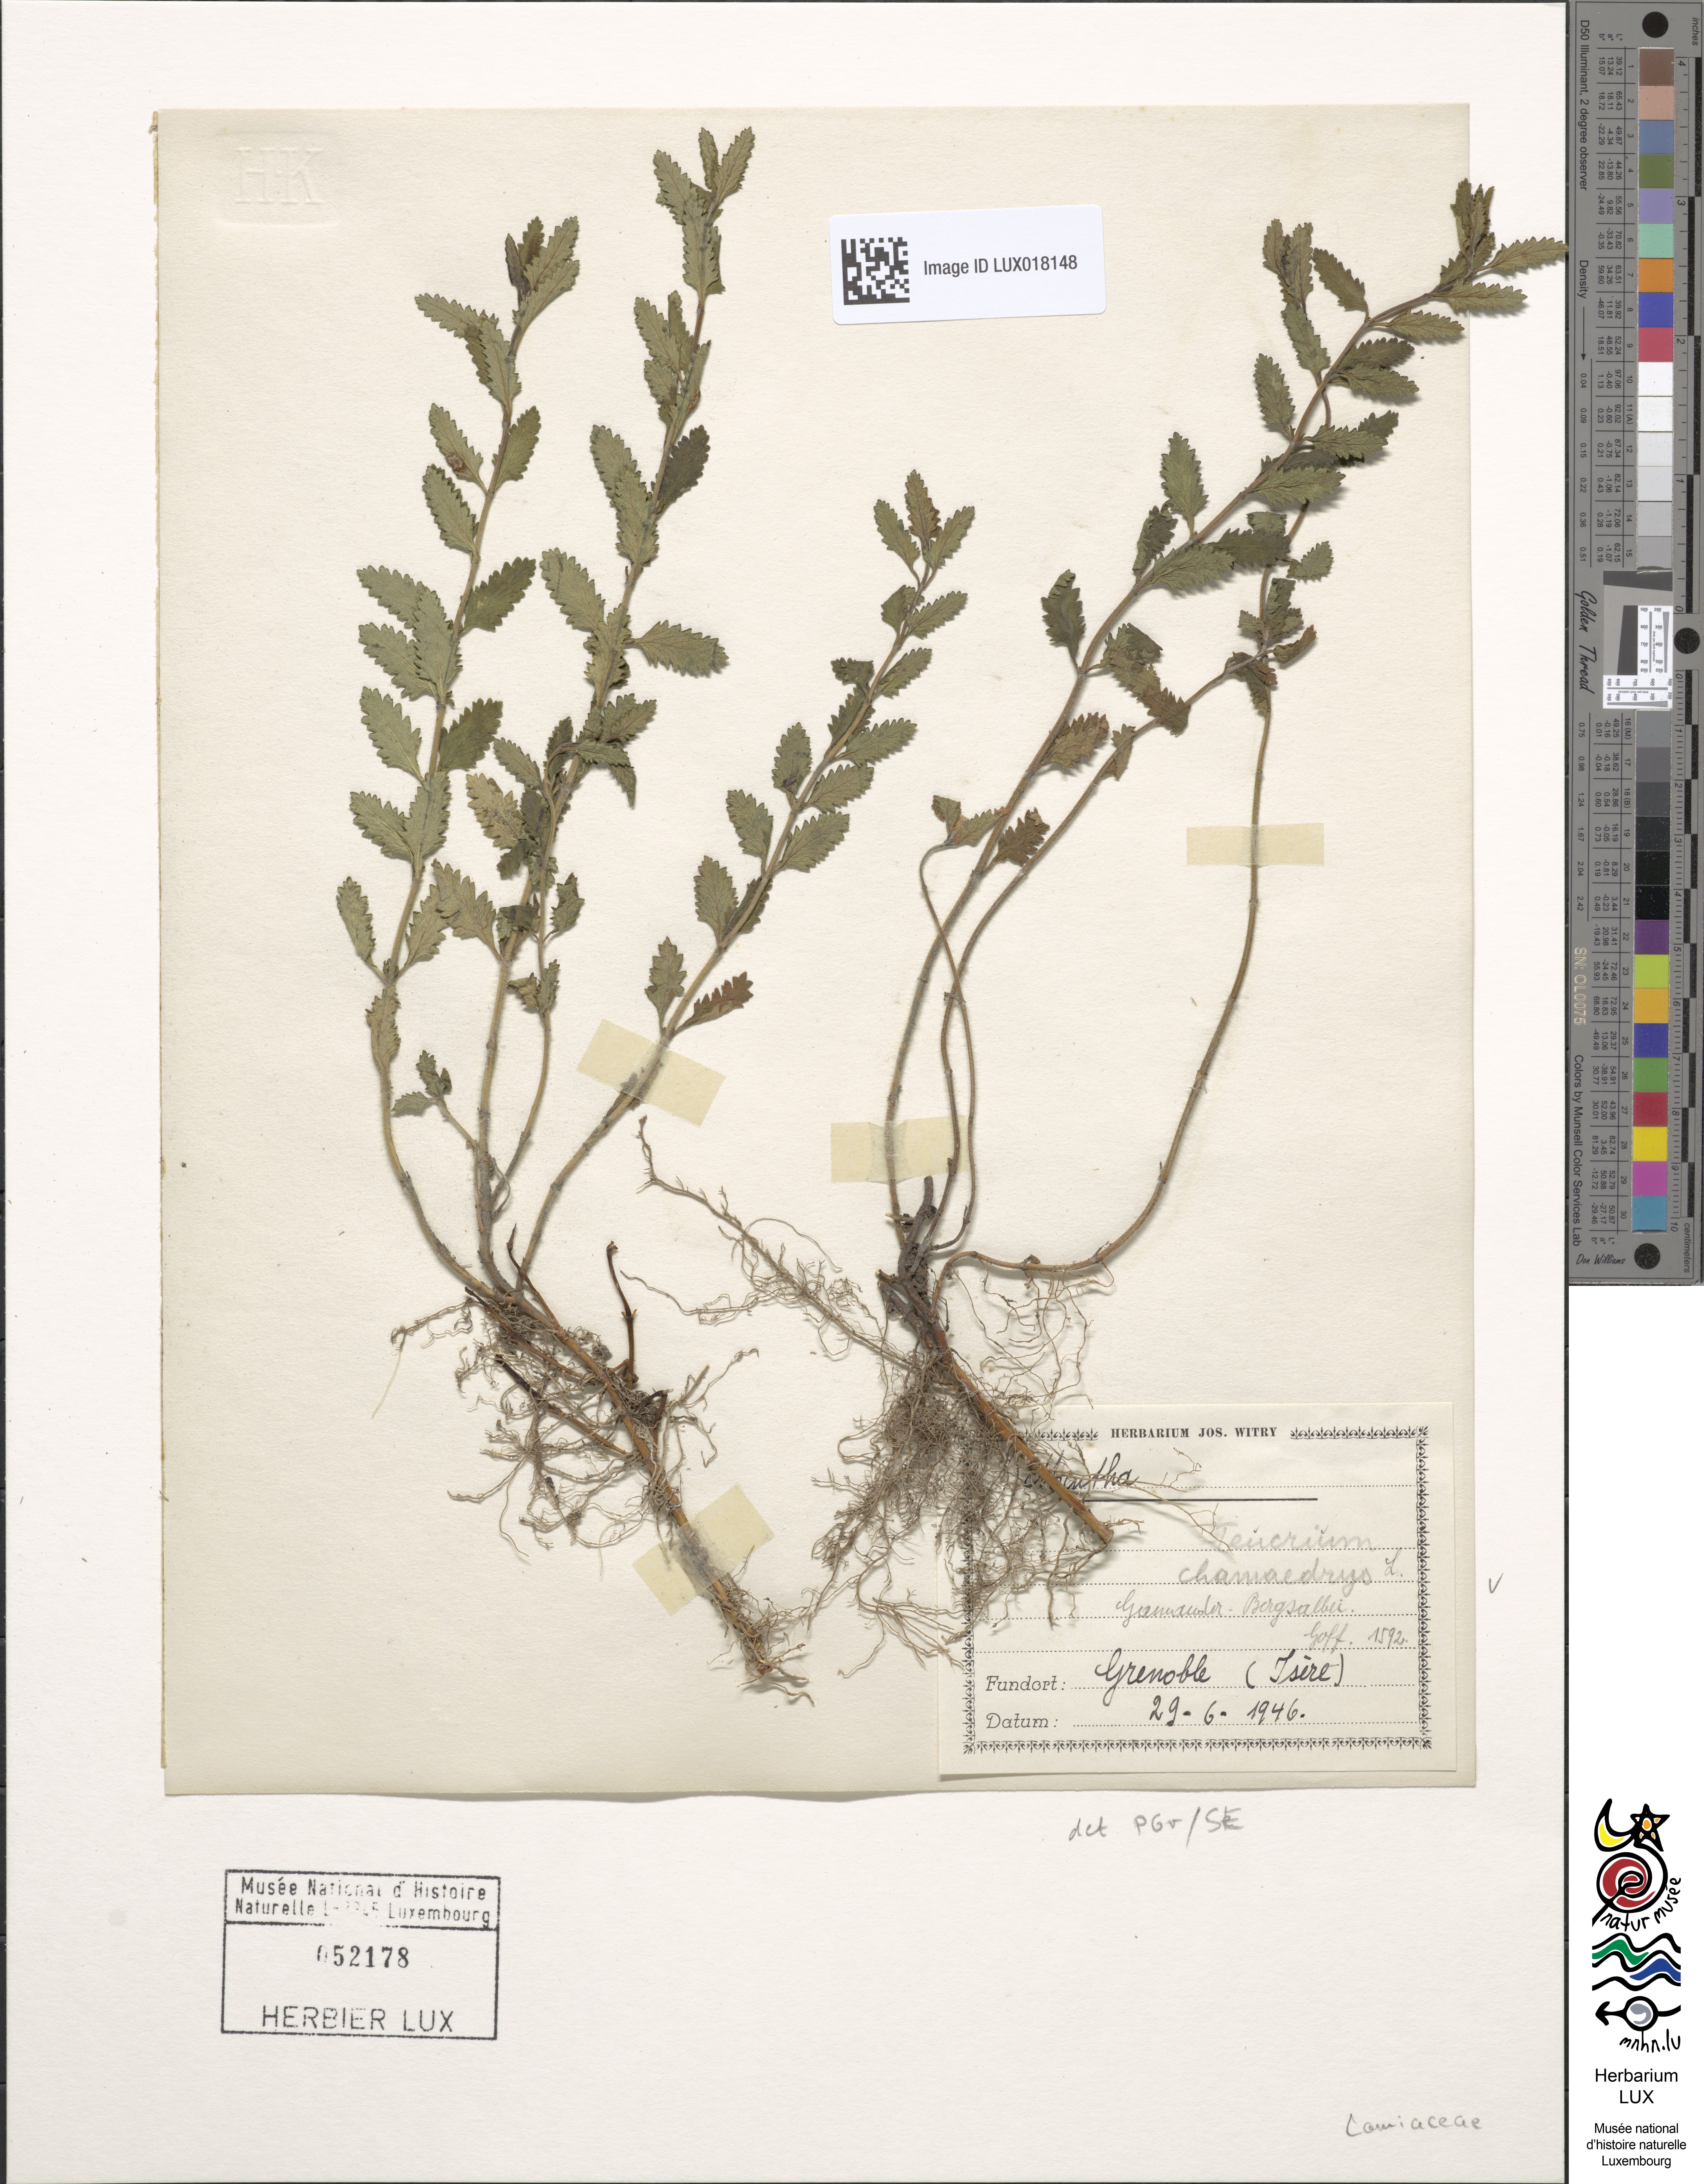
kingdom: Plantae
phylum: Tracheophyta
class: Magnoliopsida
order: Lamiales
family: Lamiaceae
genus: Teucrium
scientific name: Teucrium chamaedrys
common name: Wall germander
